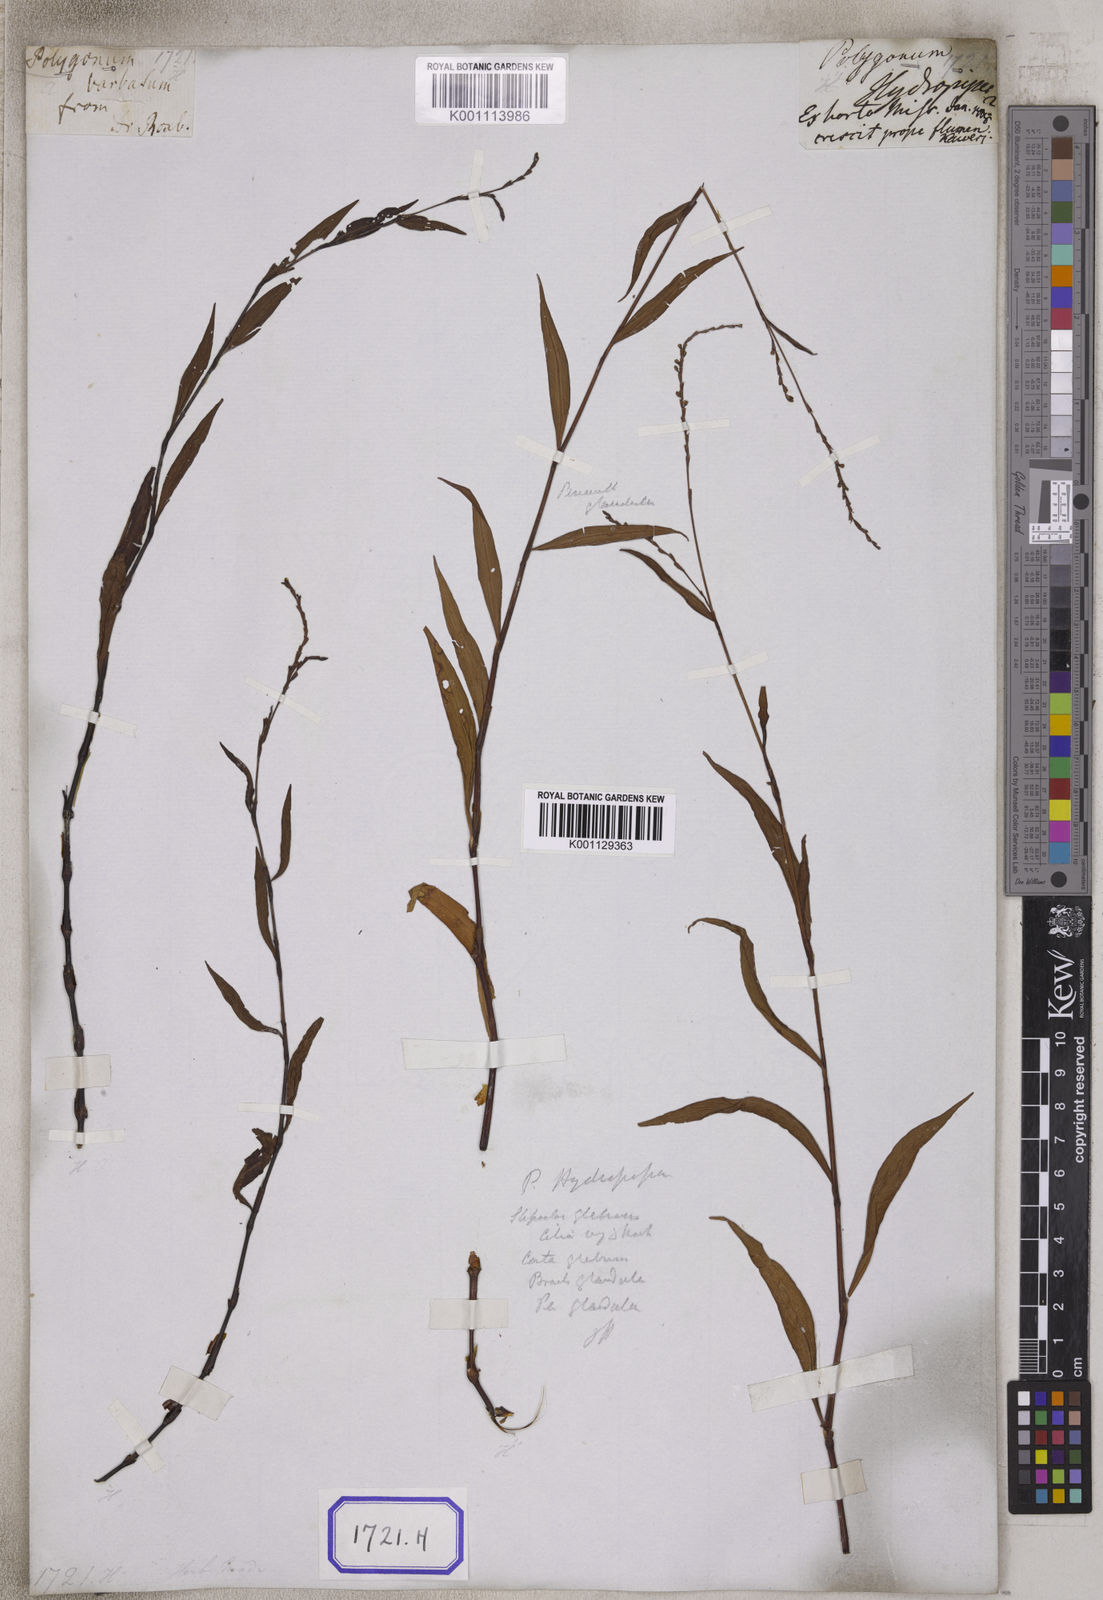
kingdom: Plantae
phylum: Tracheophyta
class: Magnoliopsida
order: Caryophyllales
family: Polygonaceae
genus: Persicaria
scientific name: Persicaria hydropiperoides
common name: Swamp smartweed
